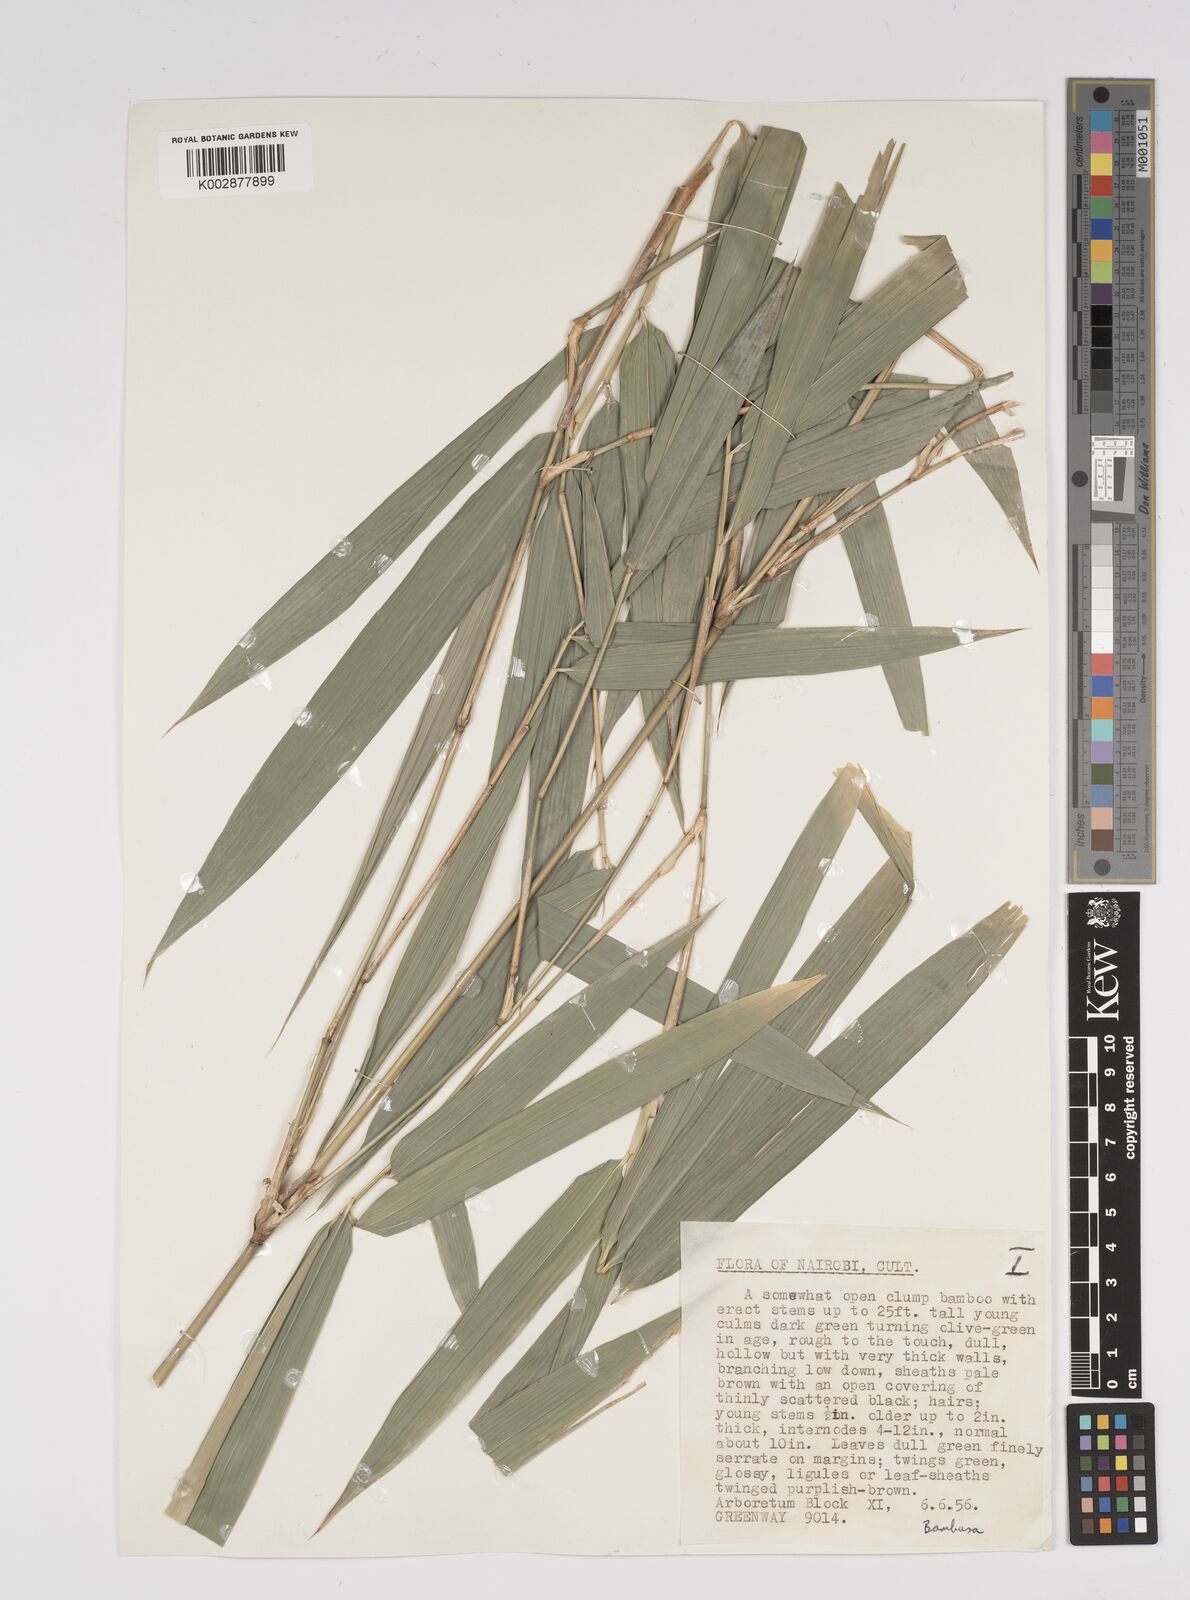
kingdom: Plantae
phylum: Tracheophyta
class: Liliopsida
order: Poales
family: Poaceae
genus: Bambusa
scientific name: Bambusa
